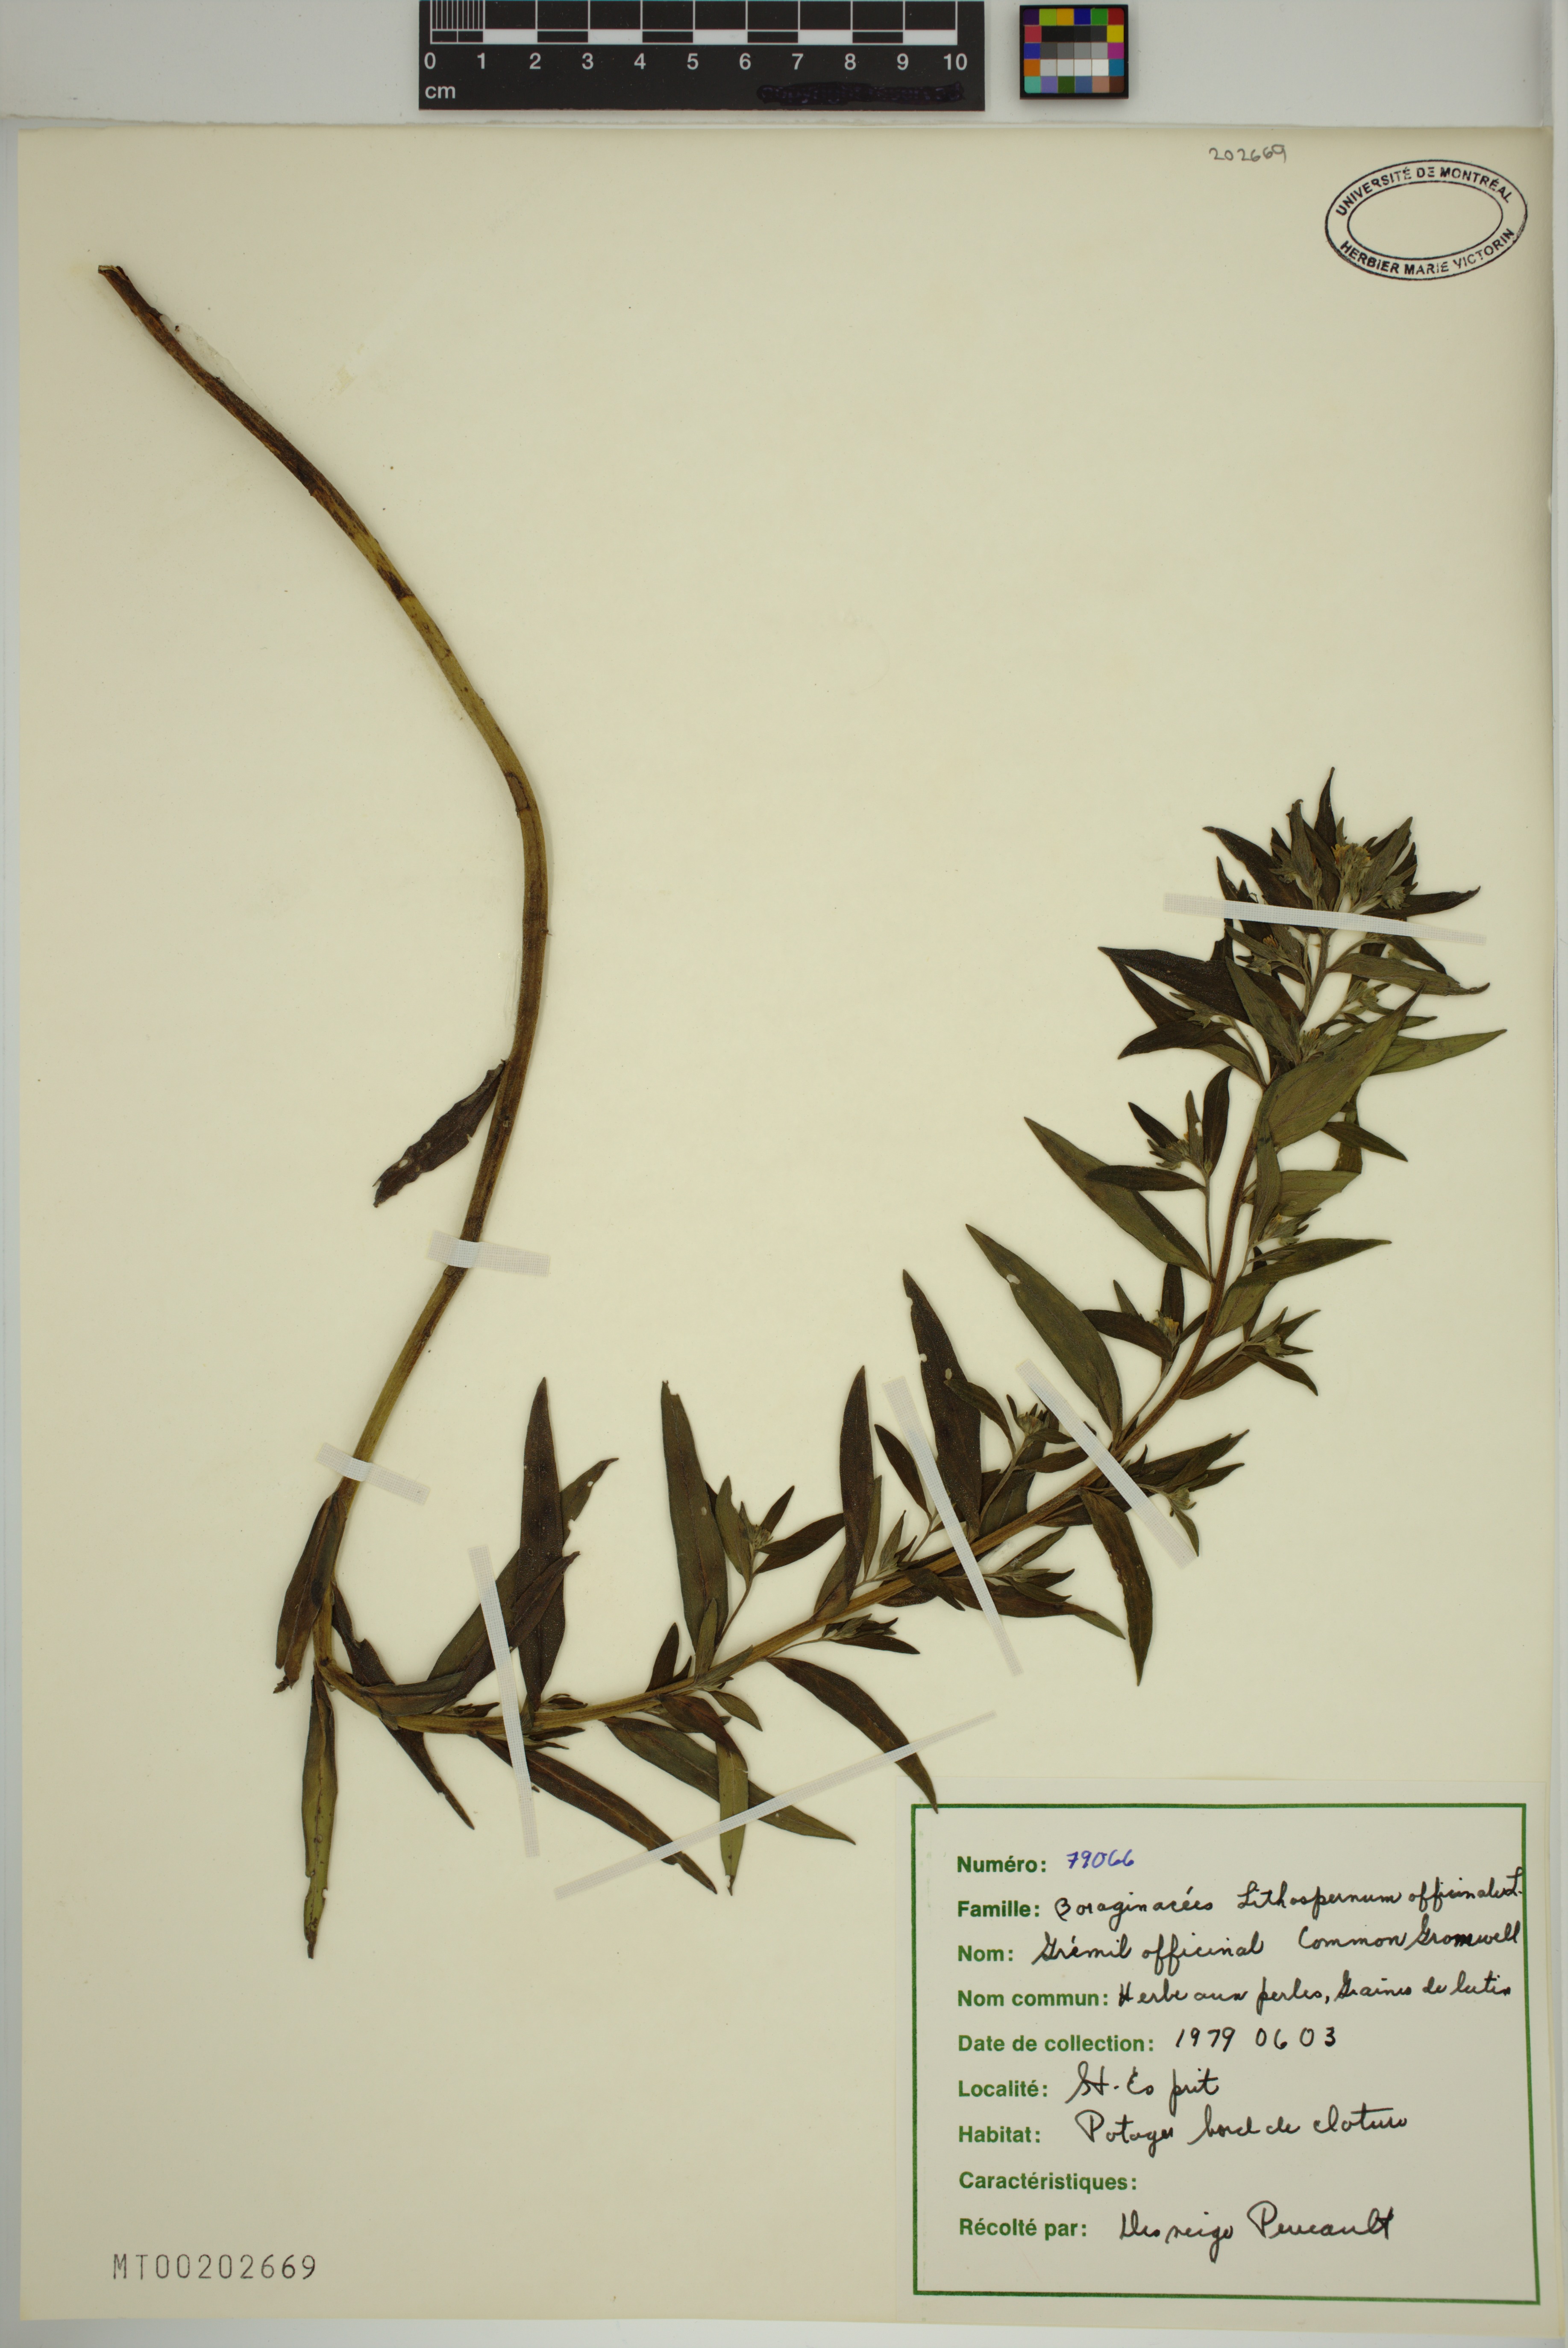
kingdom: Plantae
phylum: Tracheophyta
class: Magnoliopsida
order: Boraginales
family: Boraginaceae
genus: Lithospermum
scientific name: Lithospermum officinale
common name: Common gromwell
